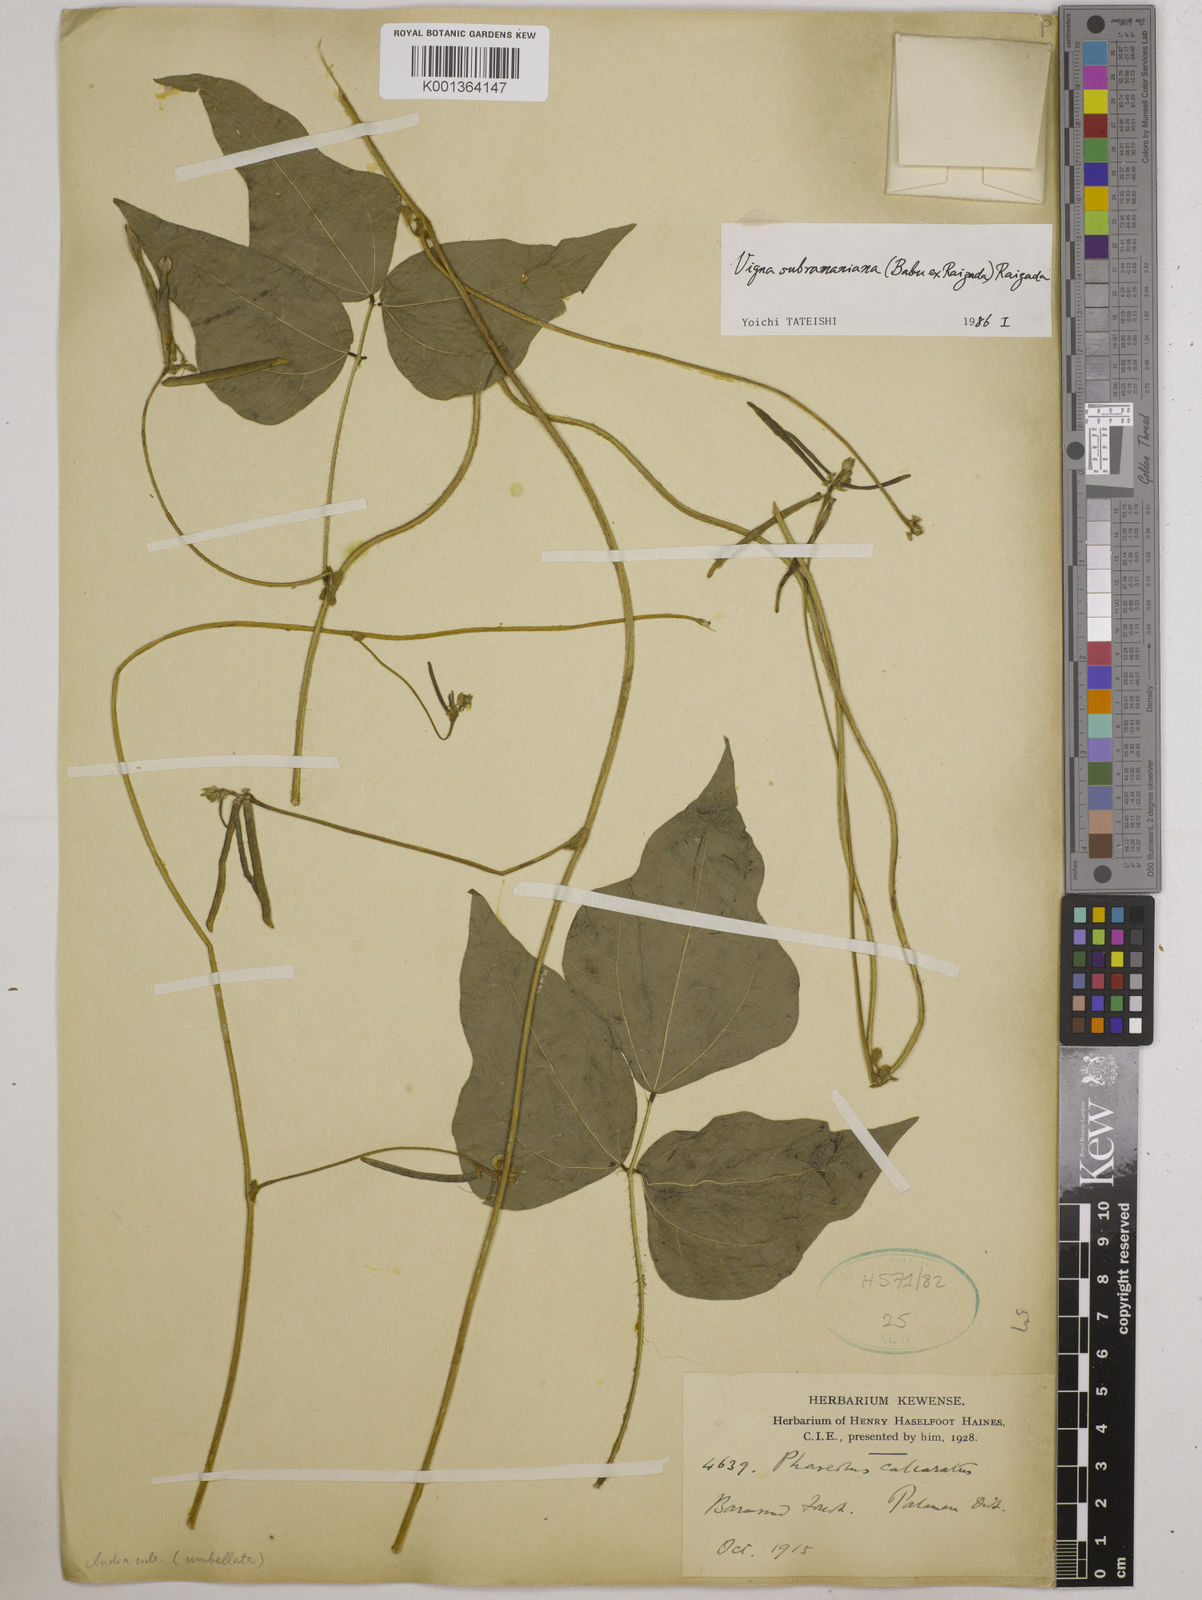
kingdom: Plantae
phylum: Tracheophyta
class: Magnoliopsida
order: Fabales
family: Fabaceae
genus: Vigna
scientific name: Vigna subterranea
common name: Bambara groundnut
